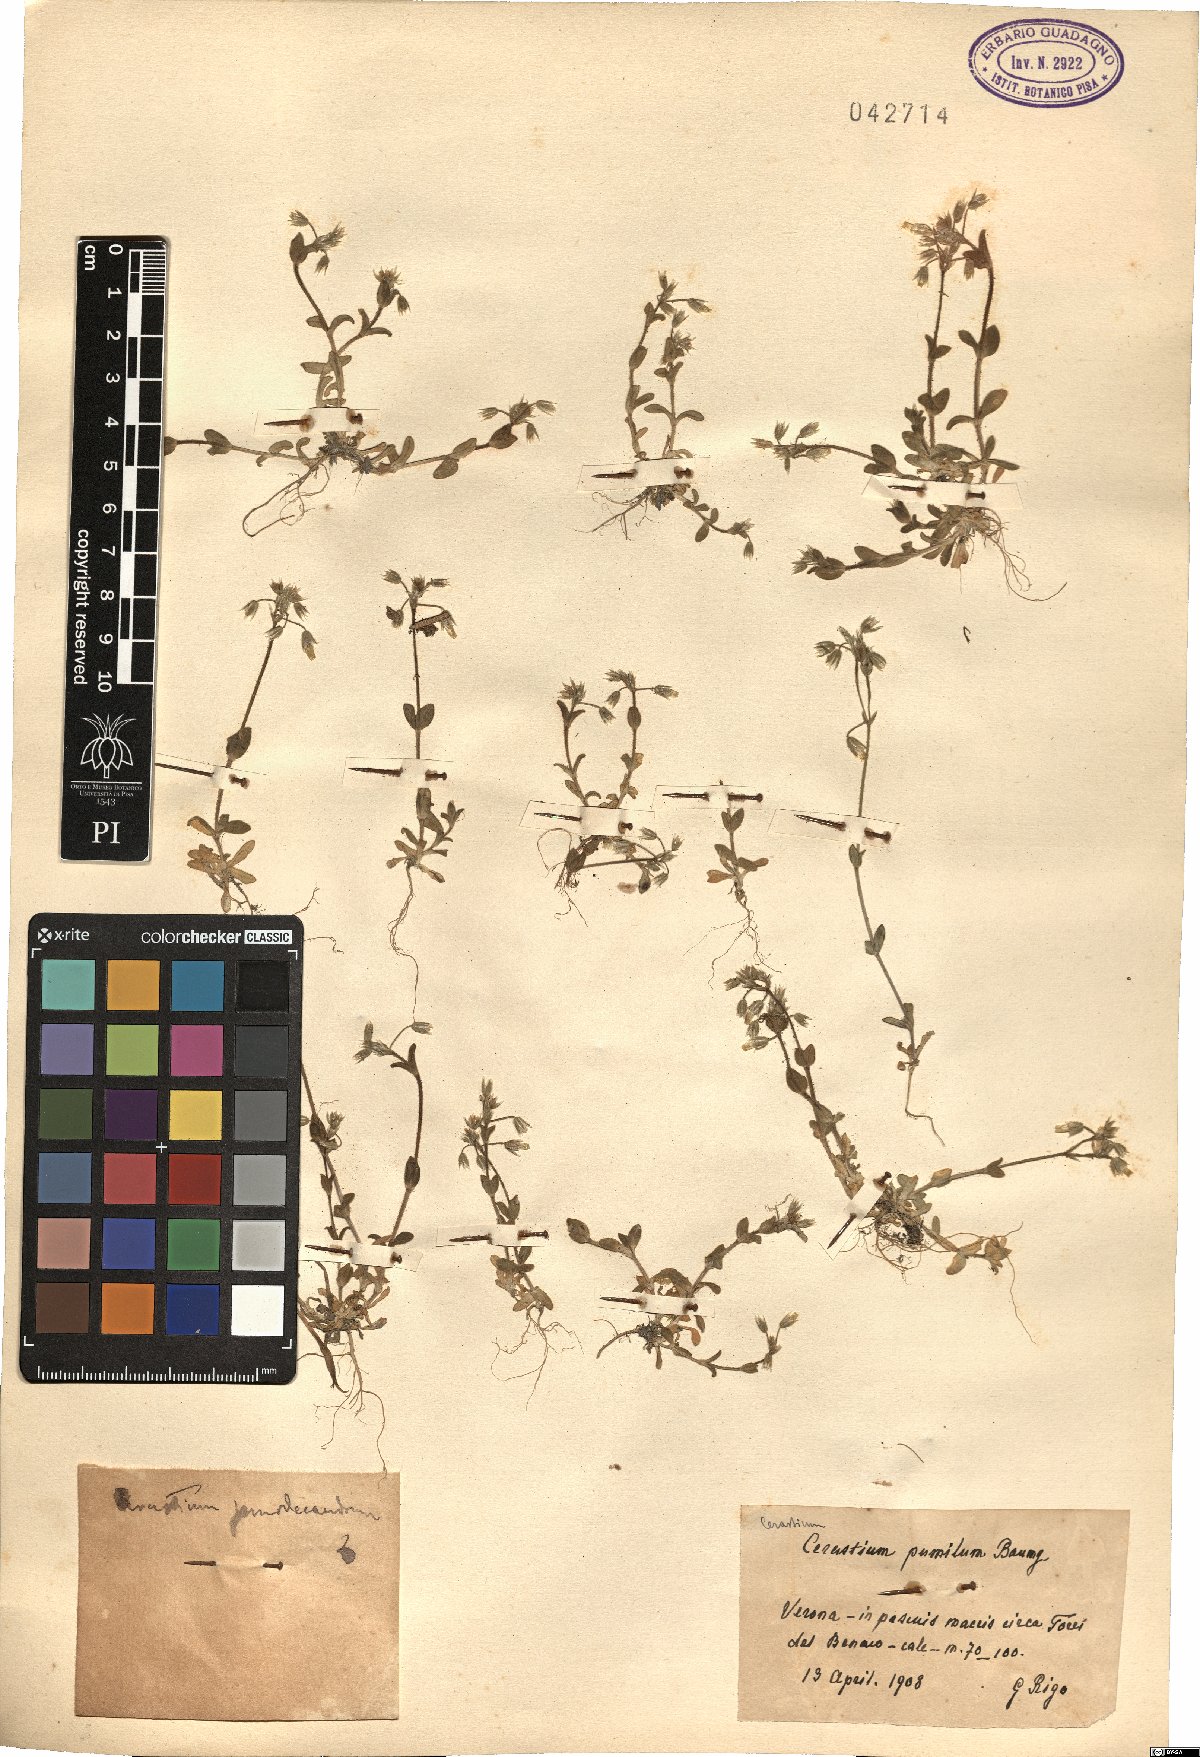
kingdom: Plantae
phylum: Tracheophyta
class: Magnoliopsida
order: Caryophyllales
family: Caryophyllaceae
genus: Cerastium
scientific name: Cerastium semidecandrum
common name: Little mouse-ear
